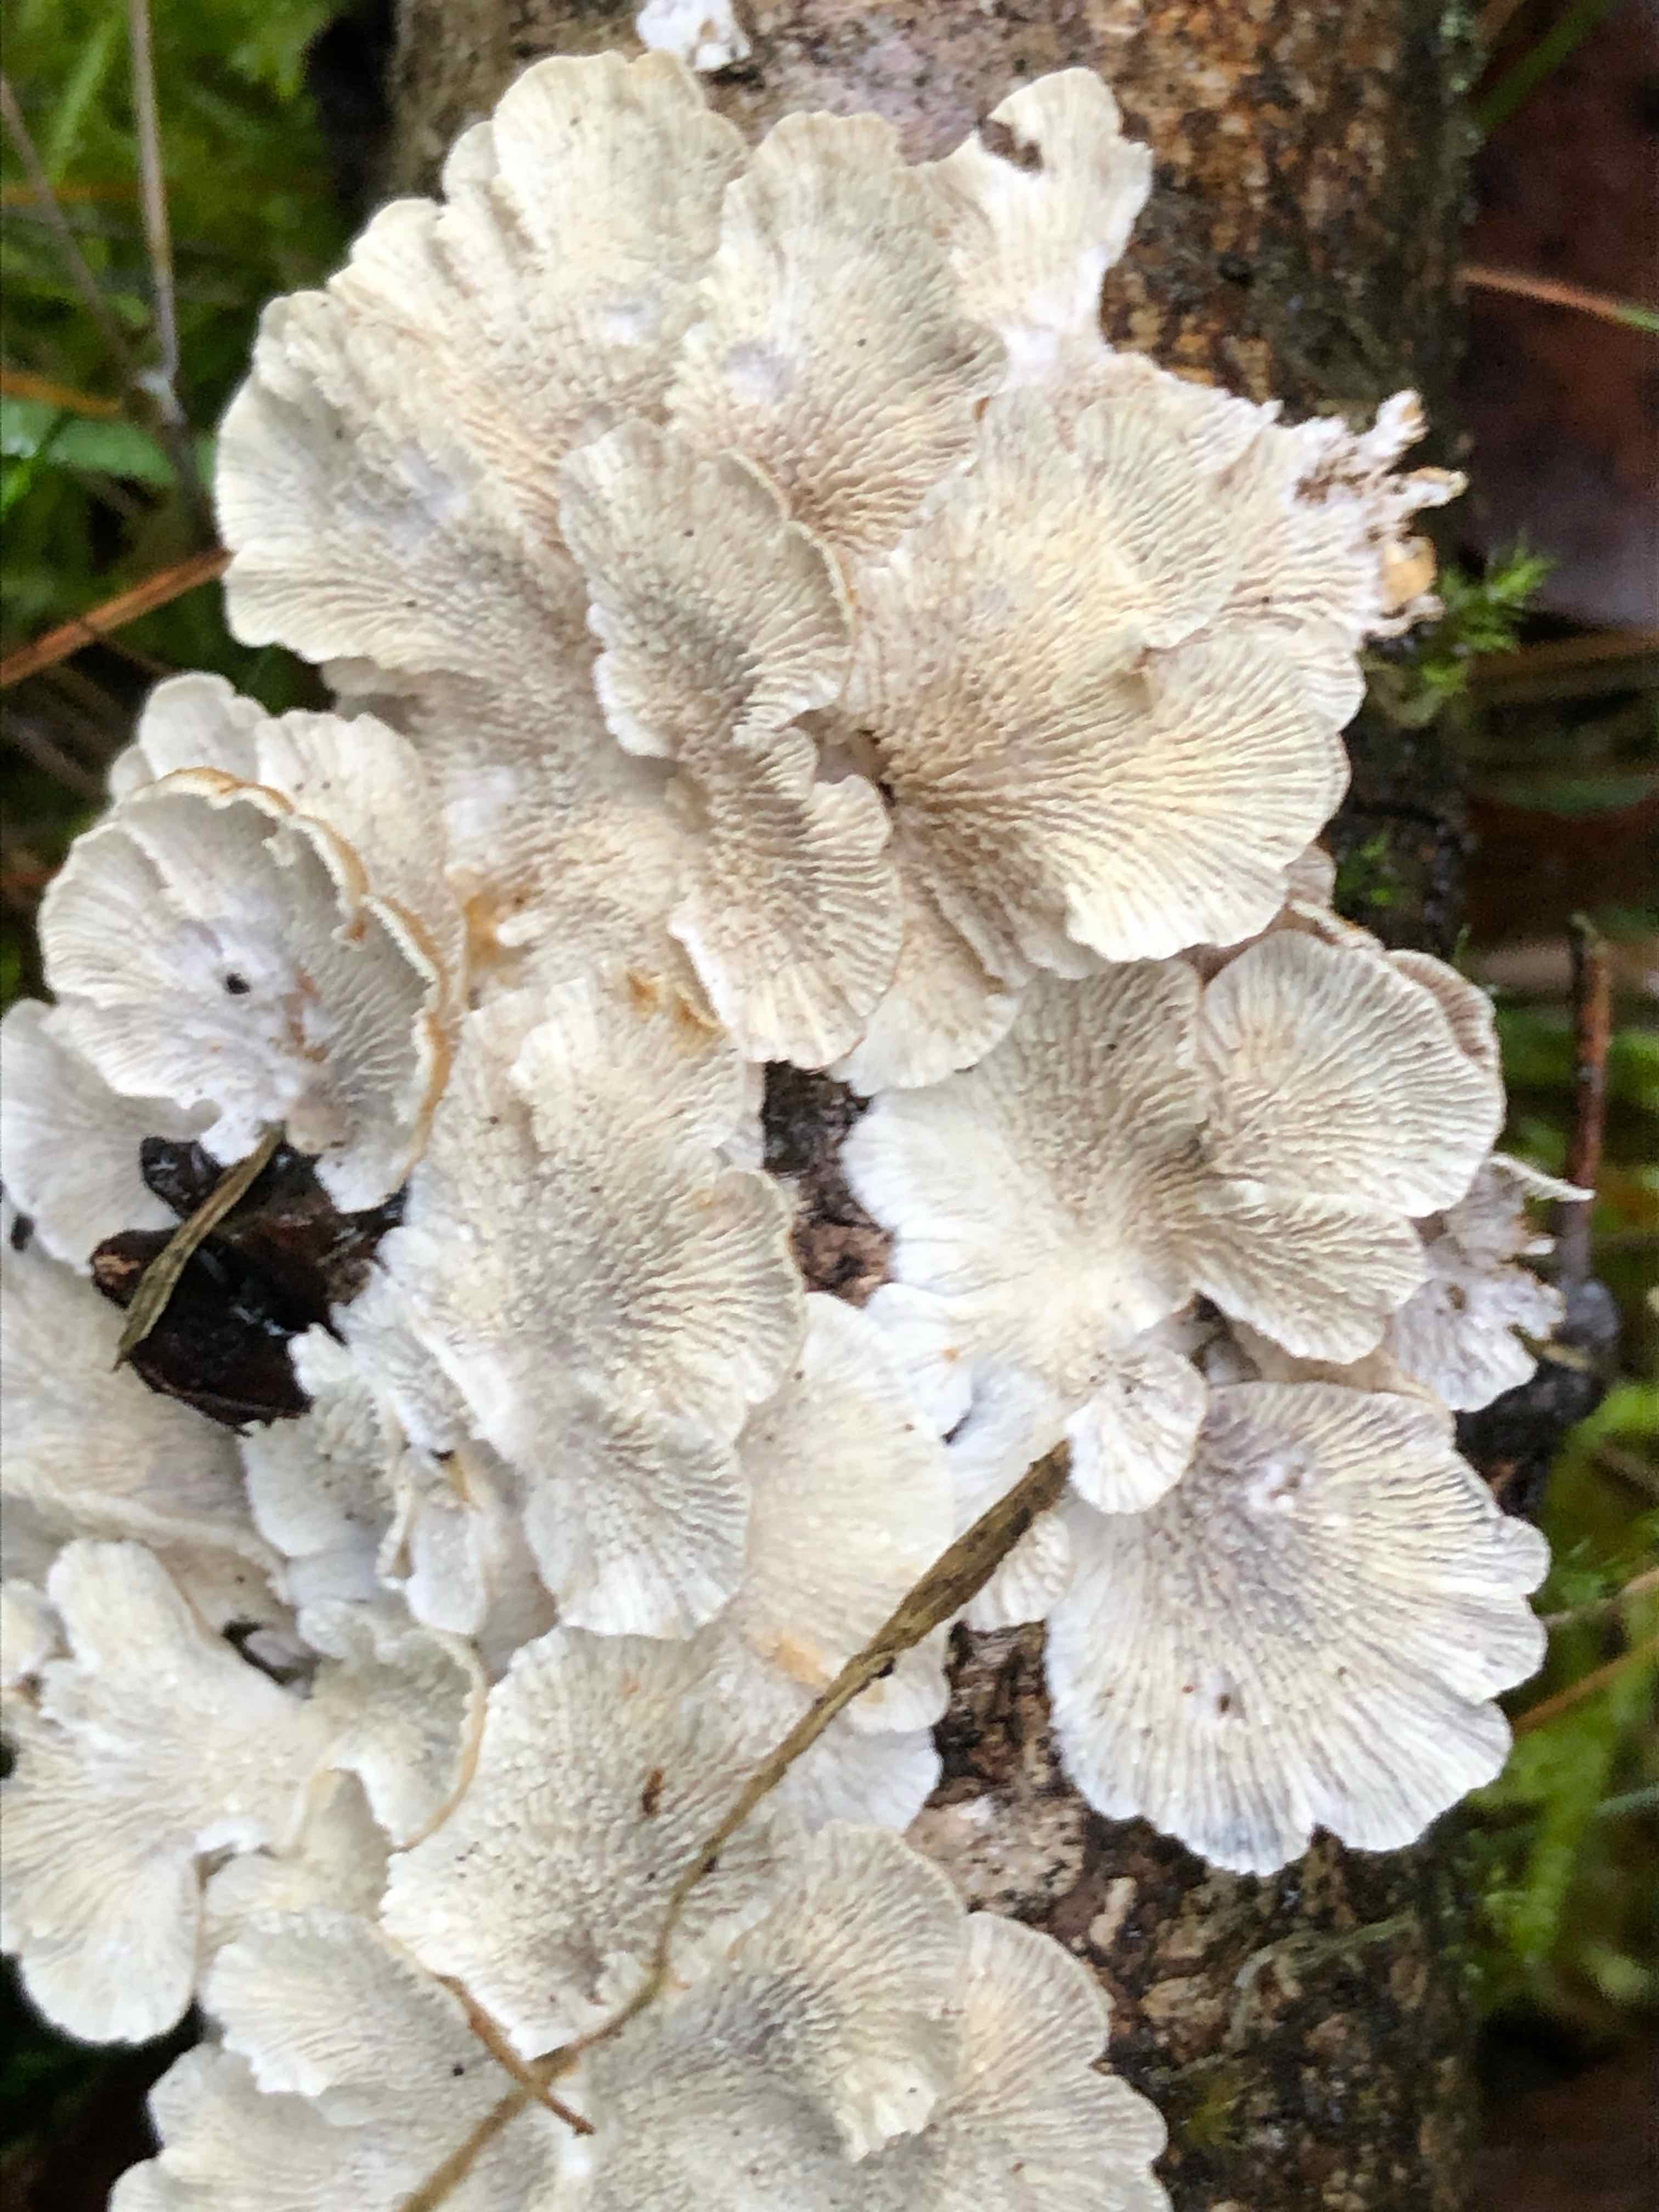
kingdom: Fungi
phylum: Basidiomycota
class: Agaricomycetes
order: Amylocorticiales
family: Amylocorticiaceae
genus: Plicaturopsis
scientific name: Plicaturopsis crispa
